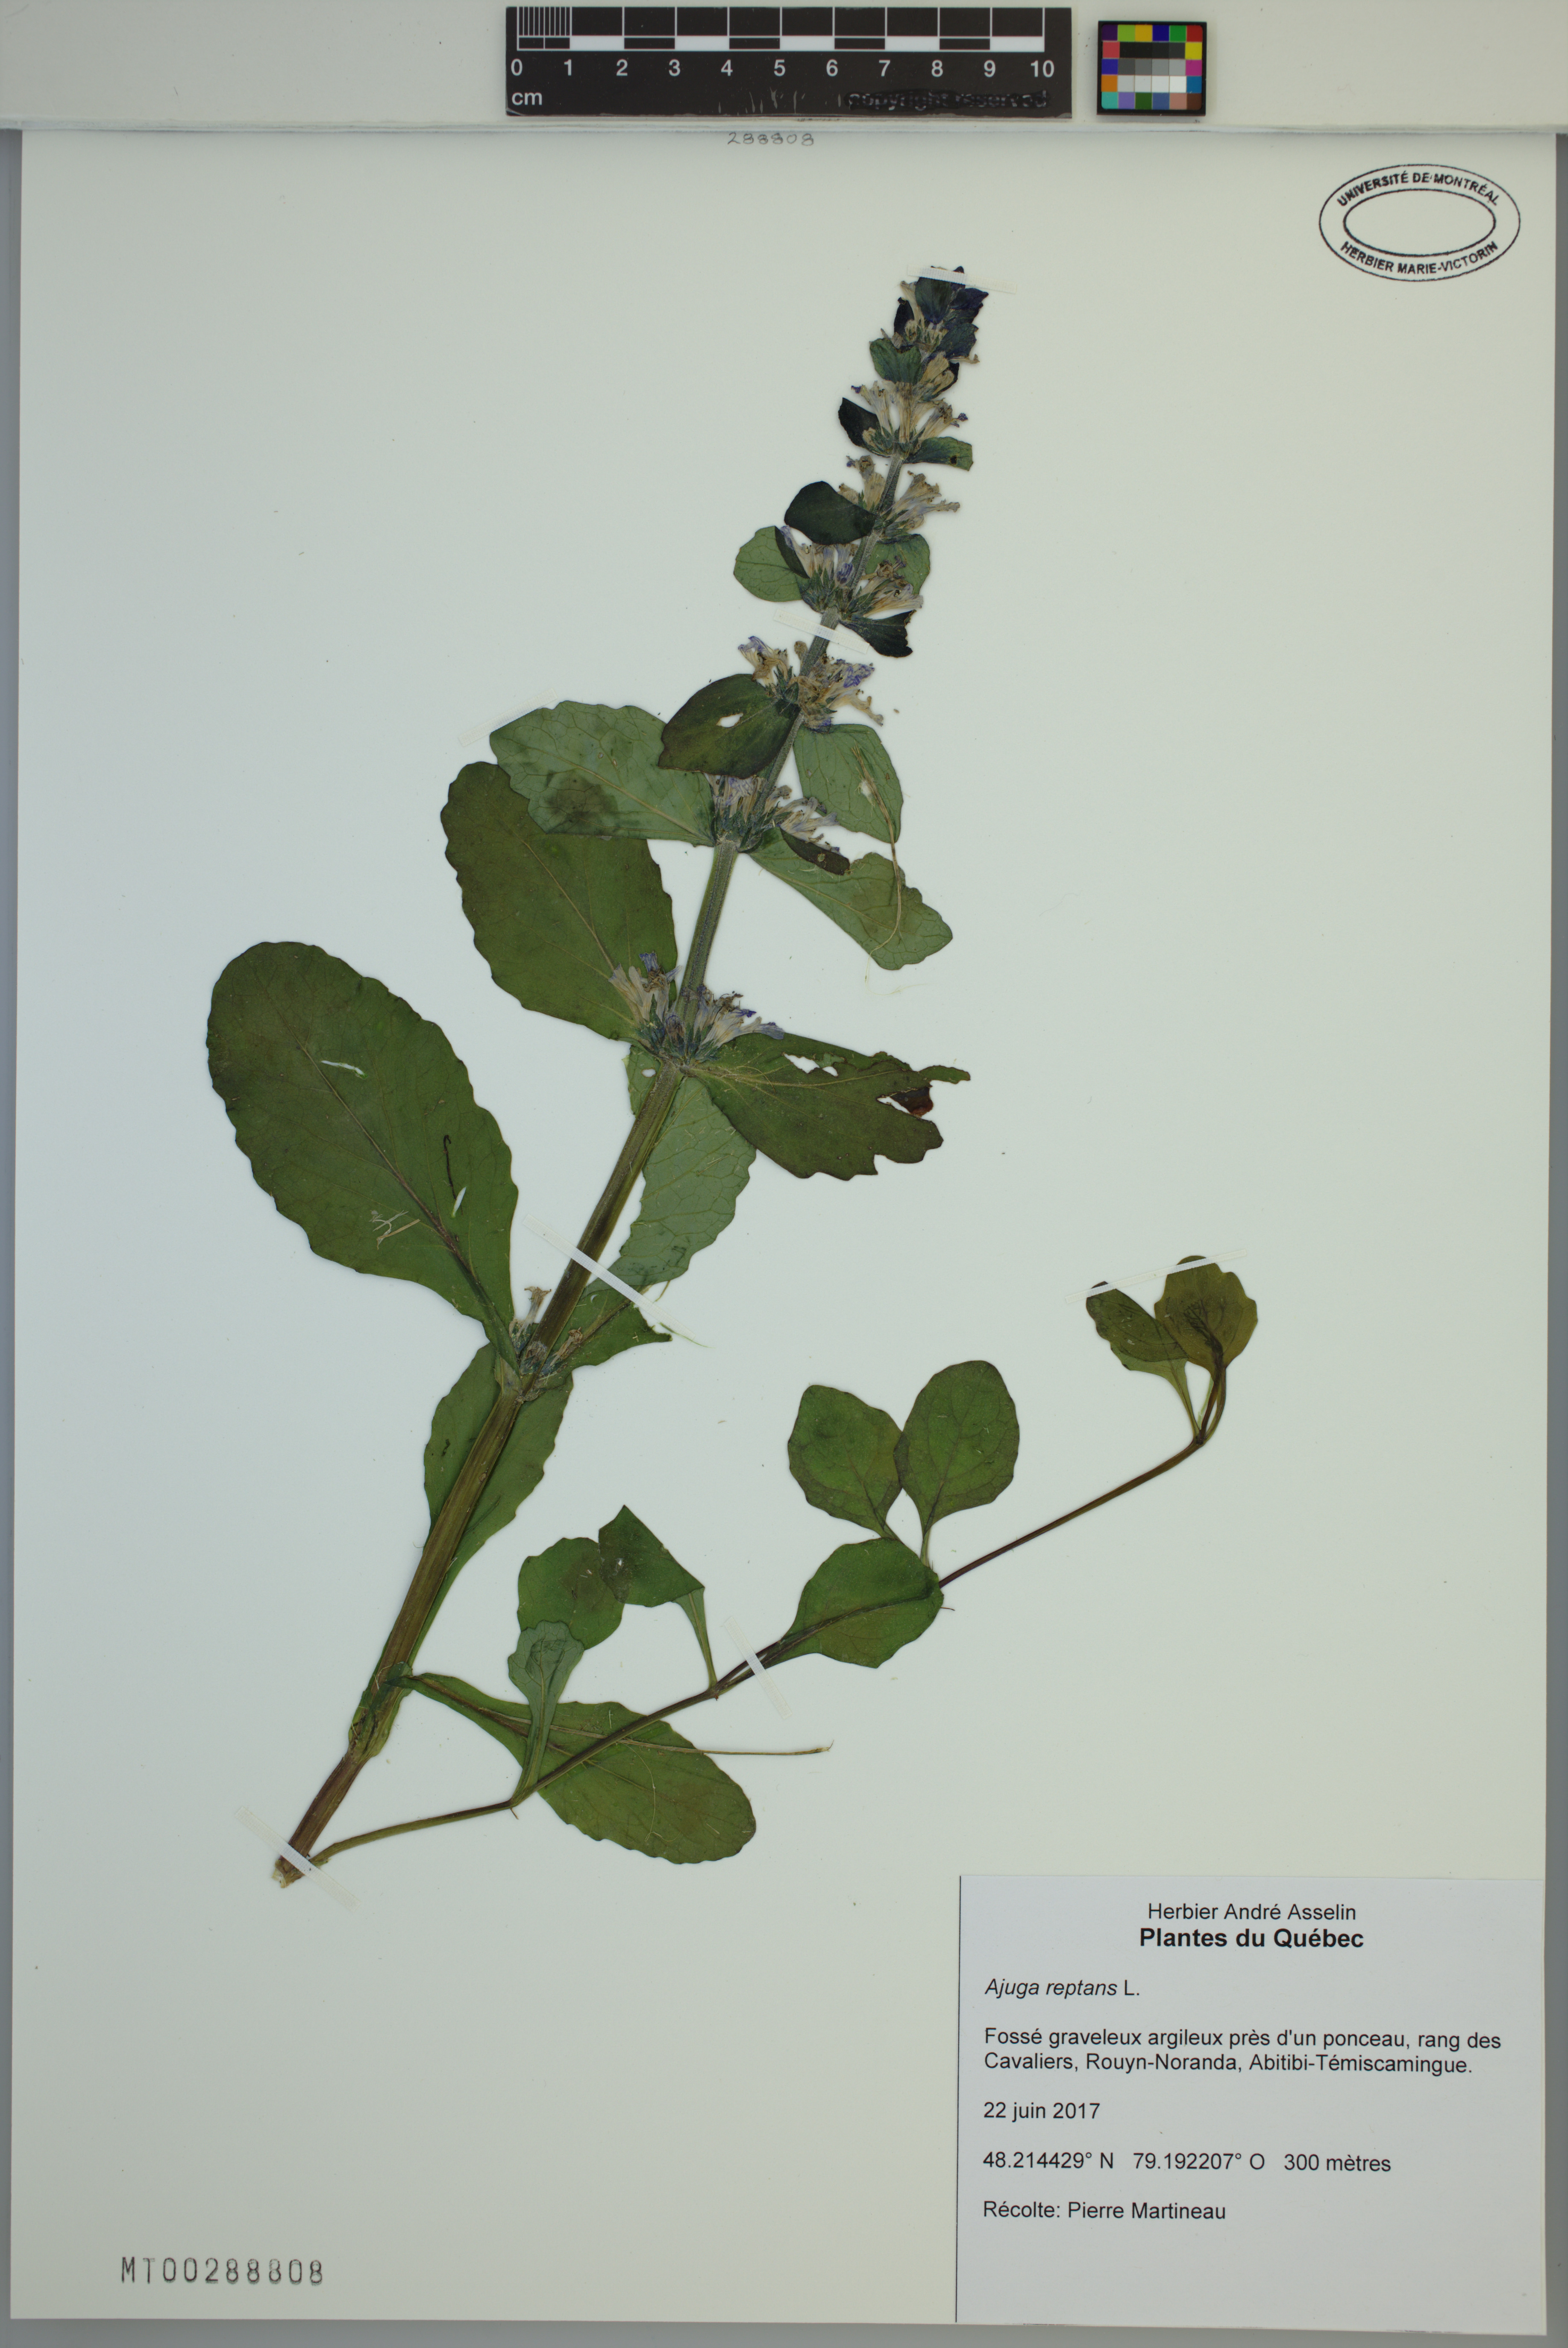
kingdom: Plantae
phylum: Tracheophyta
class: Magnoliopsida
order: Lamiales
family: Lamiaceae
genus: Ajuga
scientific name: Ajuga reptans
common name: Bugle
